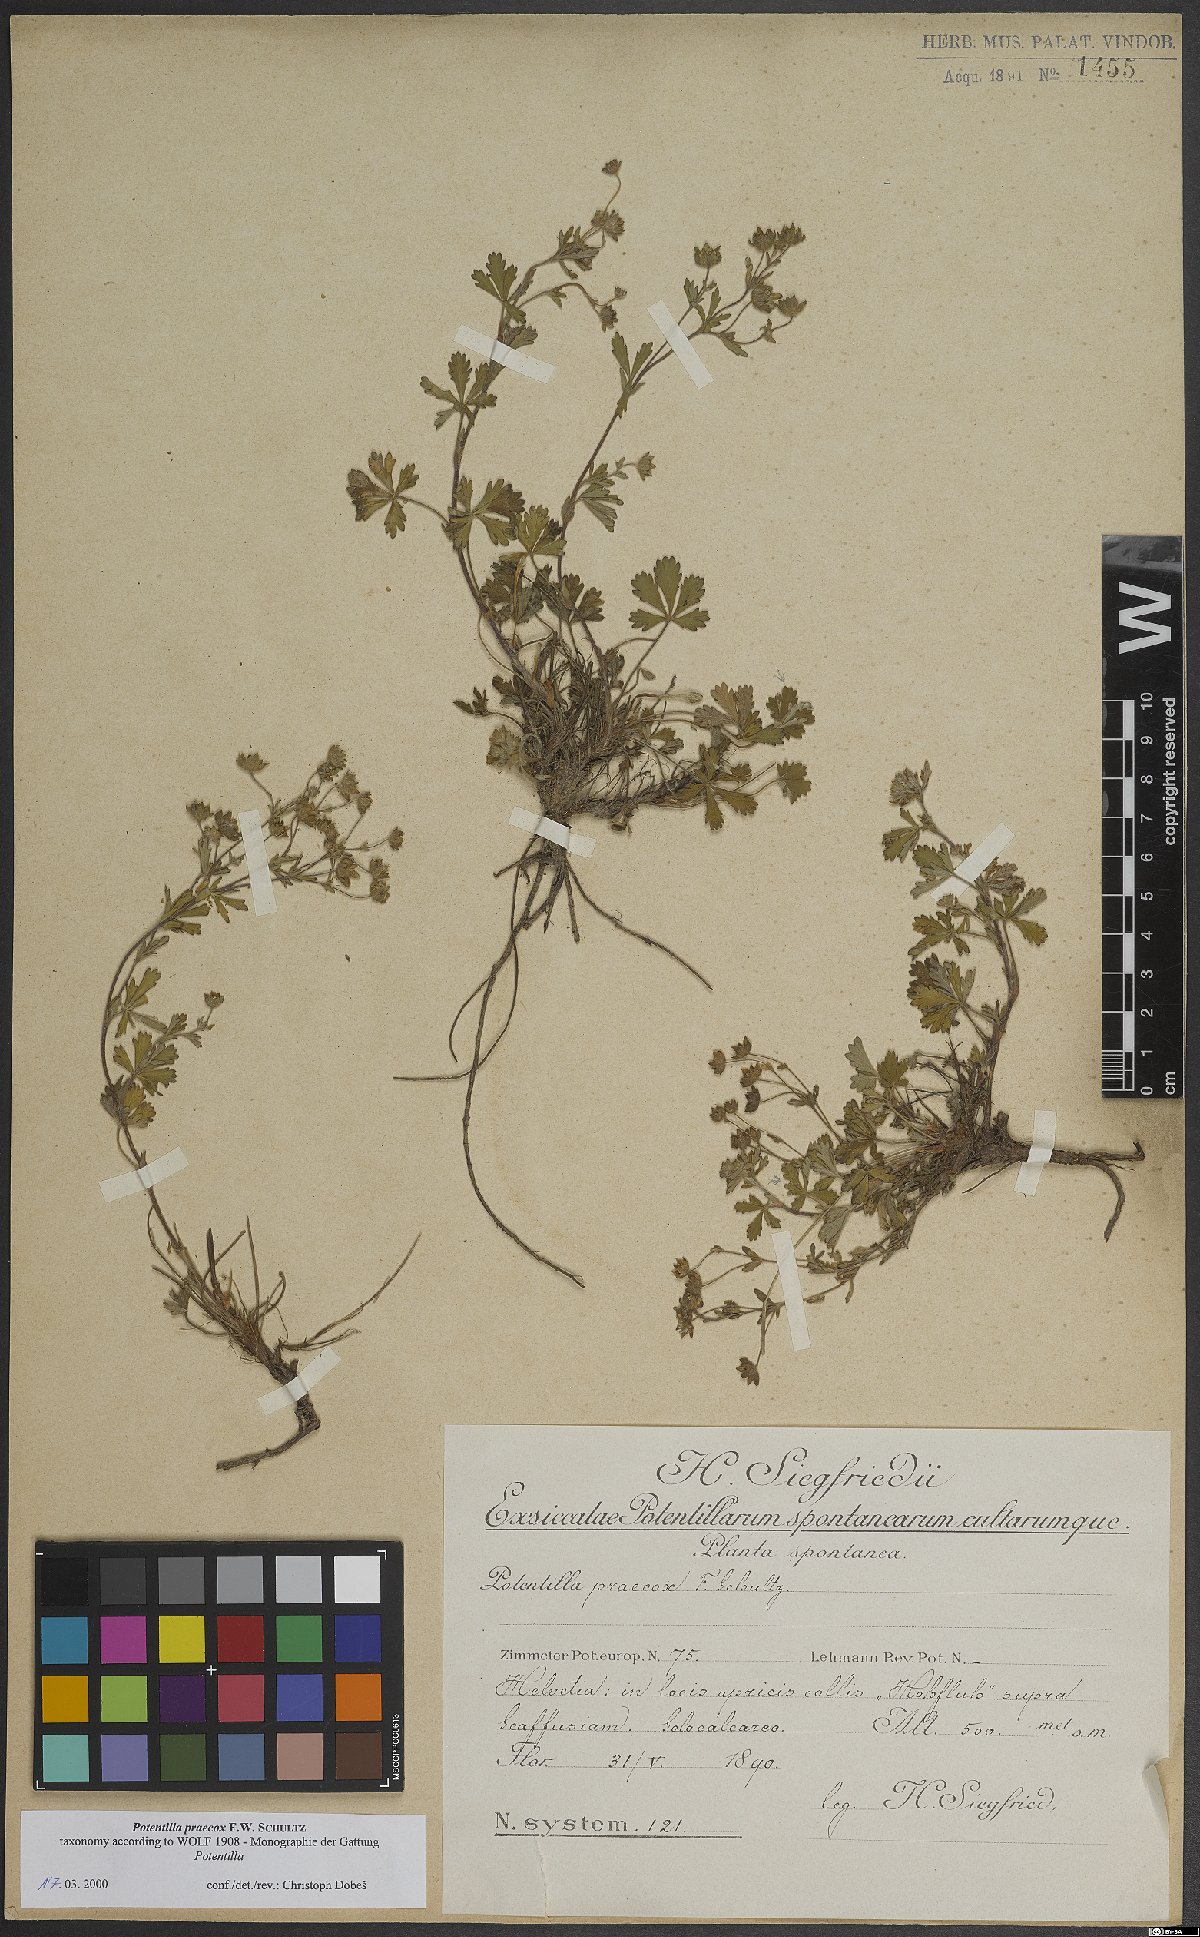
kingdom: Plantae
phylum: Tracheophyta
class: Magnoliopsida
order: Rosales
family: Rosaceae
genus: Potentilla
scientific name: Potentilla praecox
